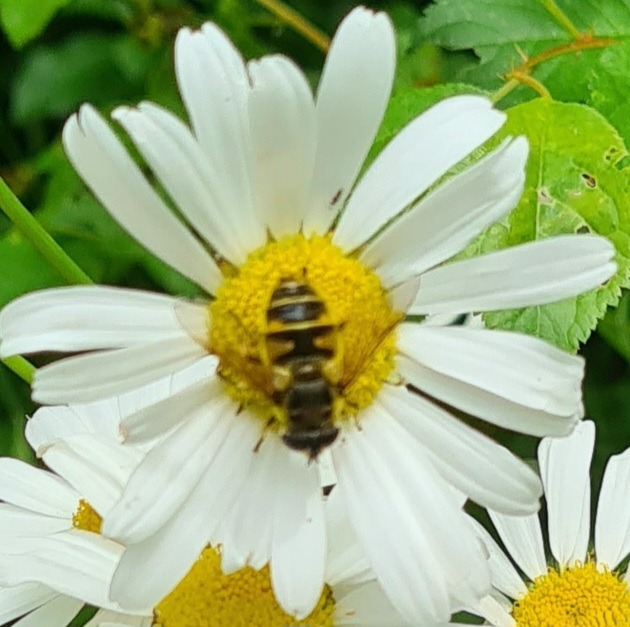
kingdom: Animalia
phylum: Arthropoda
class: Insecta
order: Diptera
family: Syrphidae
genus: Myathropa
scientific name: Myathropa florea
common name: Dødningehoved-svirreflue
